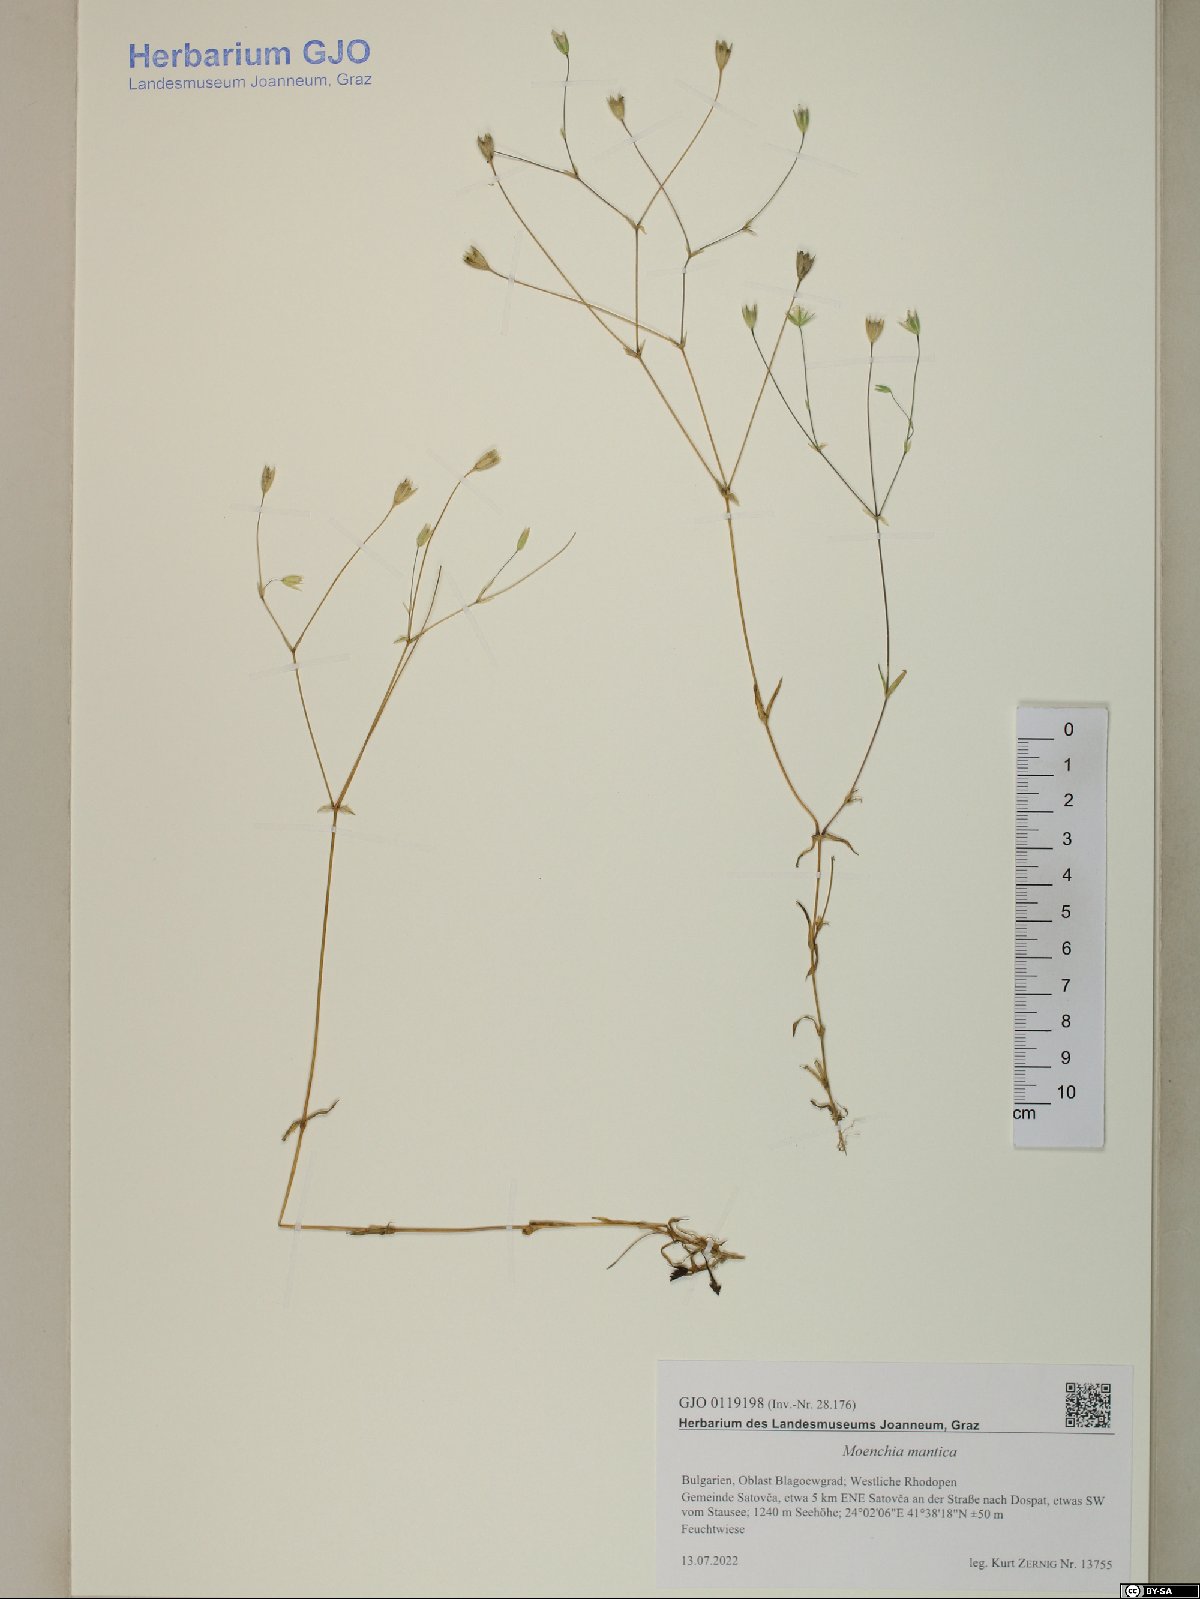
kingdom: Plantae
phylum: Tracheophyta
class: Magnoliopsida
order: Caryophyllales
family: Caryophyllaceae
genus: Moenchia
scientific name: Moenchia mantica
